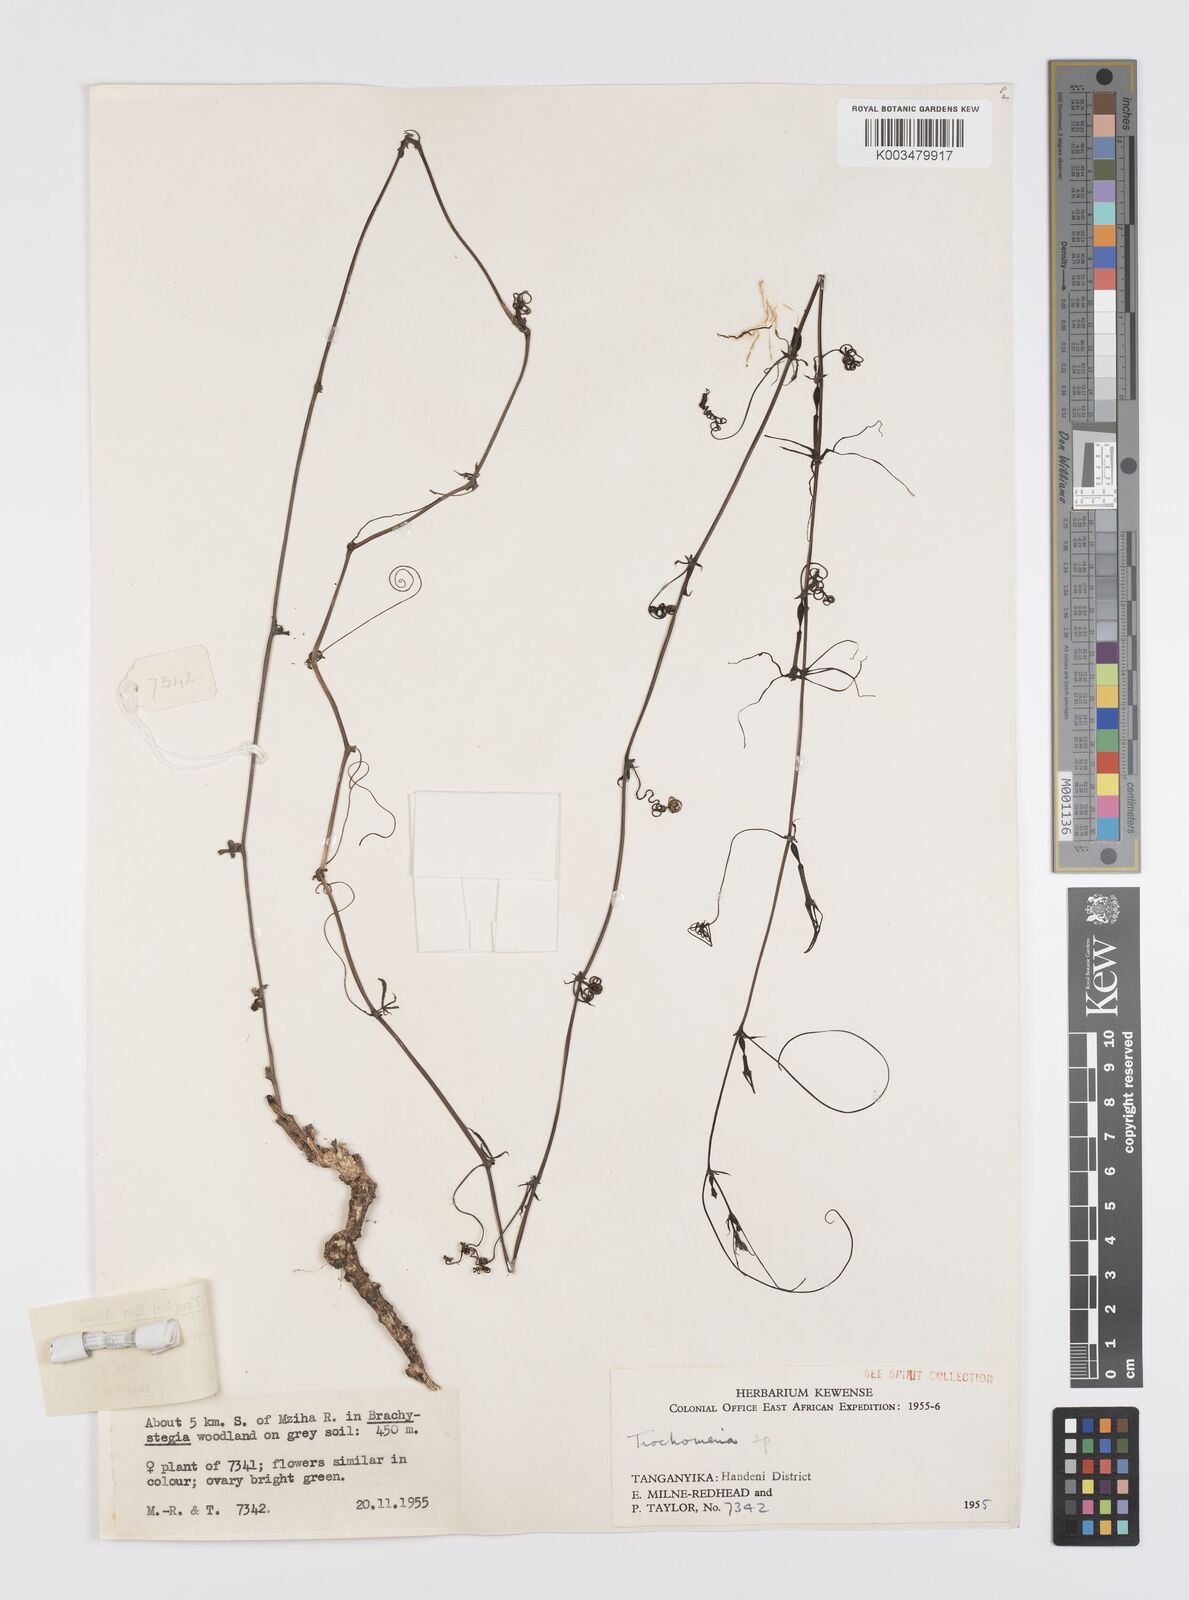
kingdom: Plantae
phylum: Tracheophyta
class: Magnoliopsida
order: Cucurbitales
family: Cucurbitaceae
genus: Trochomeria
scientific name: Trochomeria macrocarpa
